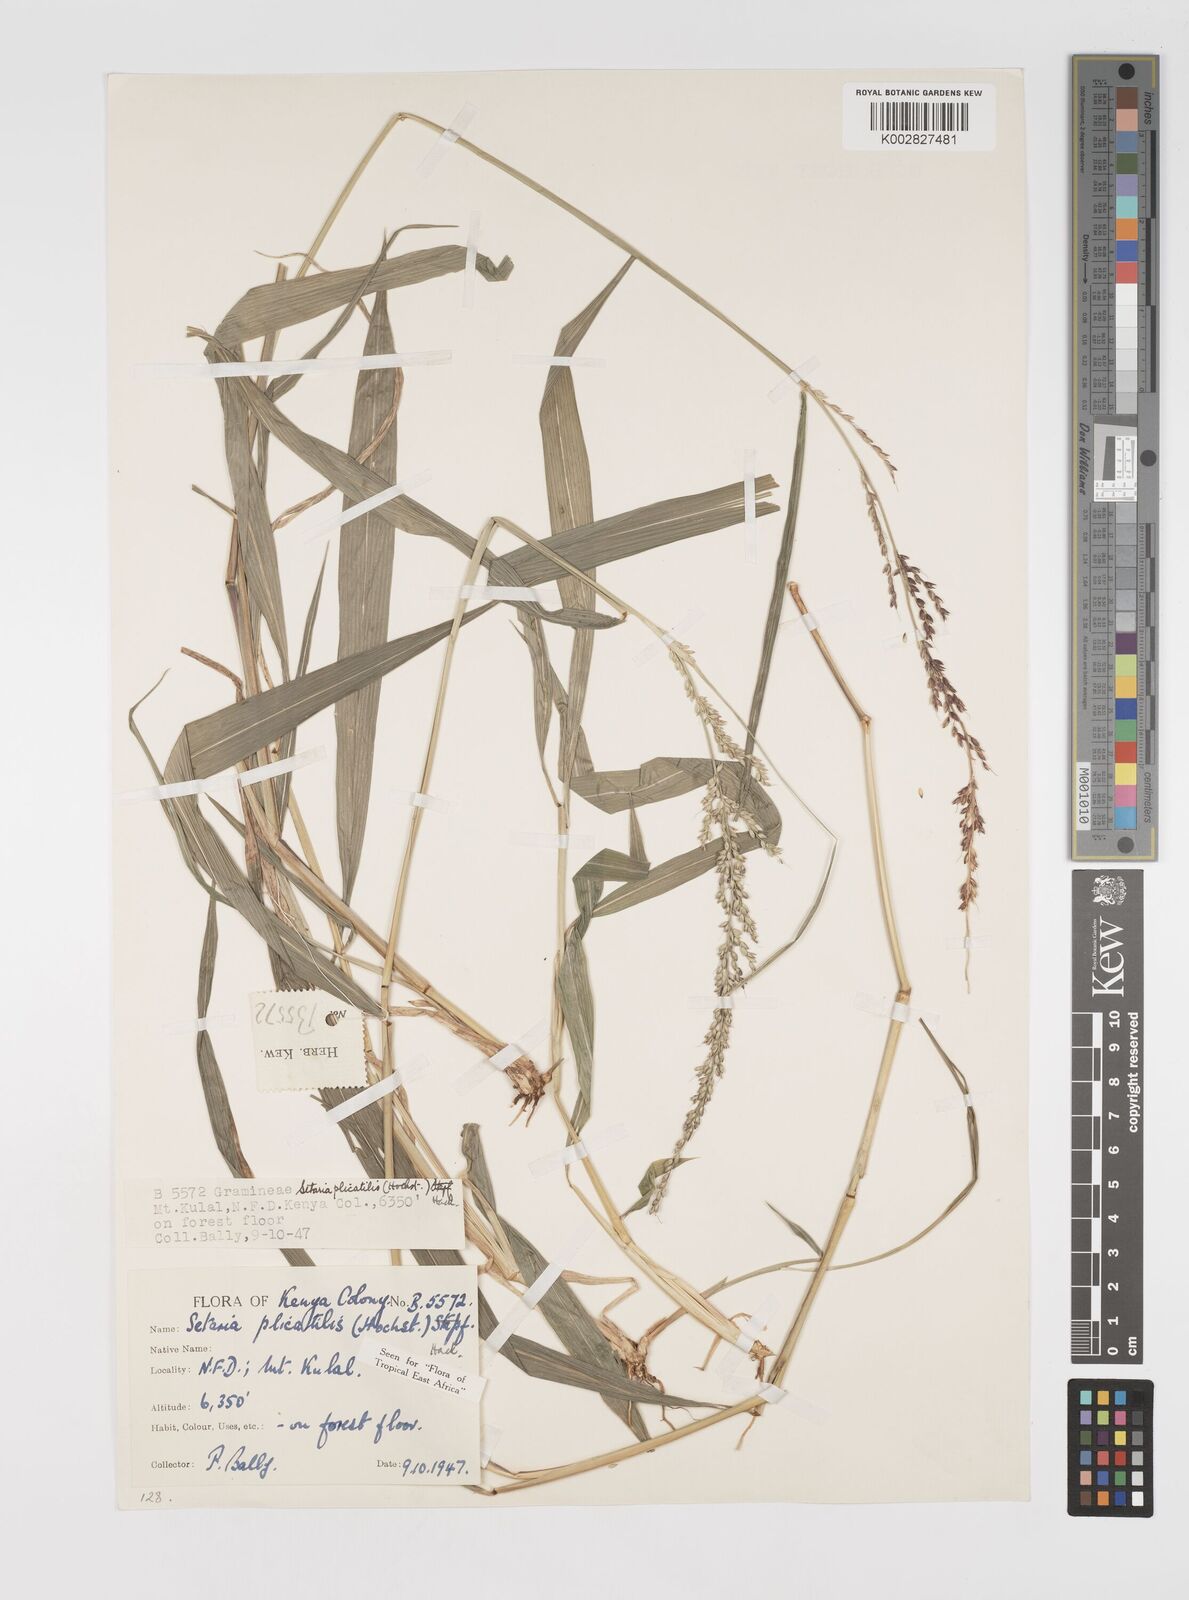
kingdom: Plantae
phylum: Tracheophyta
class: Liliopsida
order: Poales
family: Poaceae
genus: Setaria
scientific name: Setaria megaphylla
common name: Bigleaf bristlegrass
